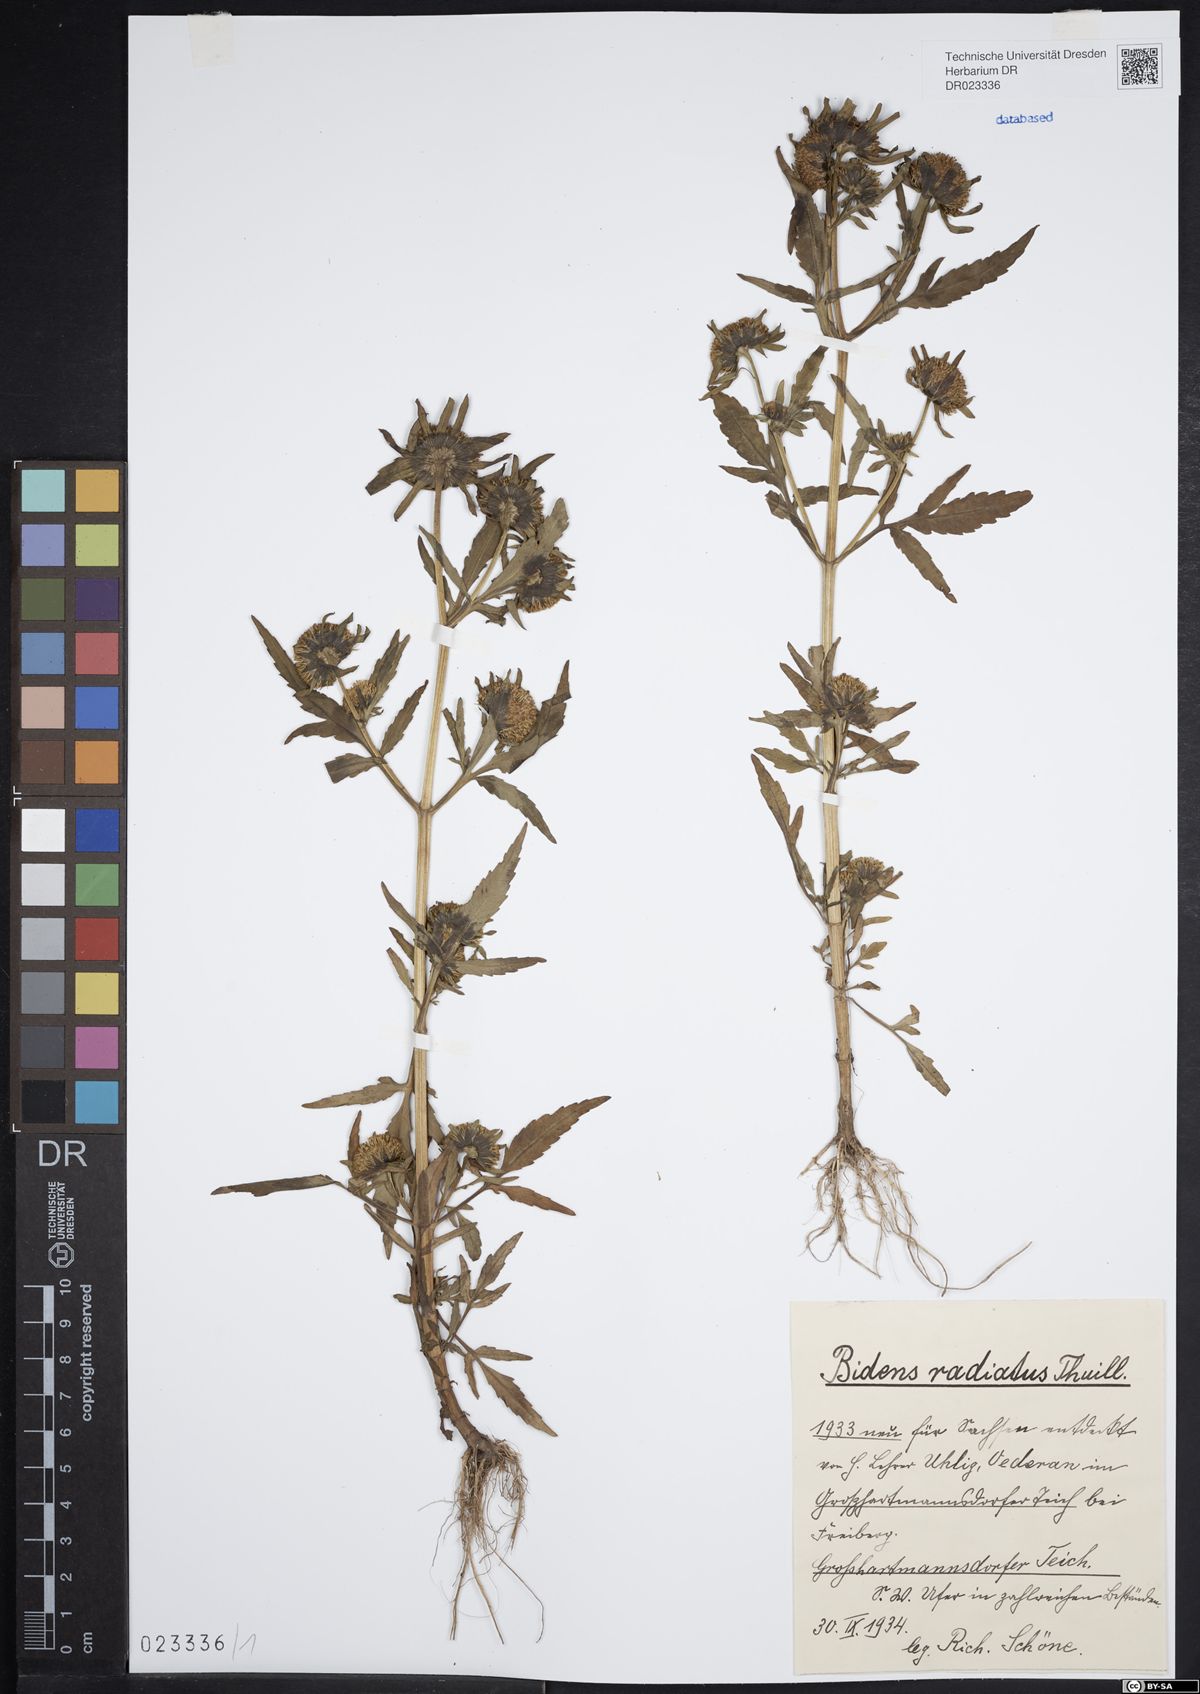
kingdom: Plantae
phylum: Tracheophyta
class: Magnoliopsida
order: Asterales
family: Asteraceae
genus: Bidens
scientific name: Bidens radiata
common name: Radiating bur-marigold
